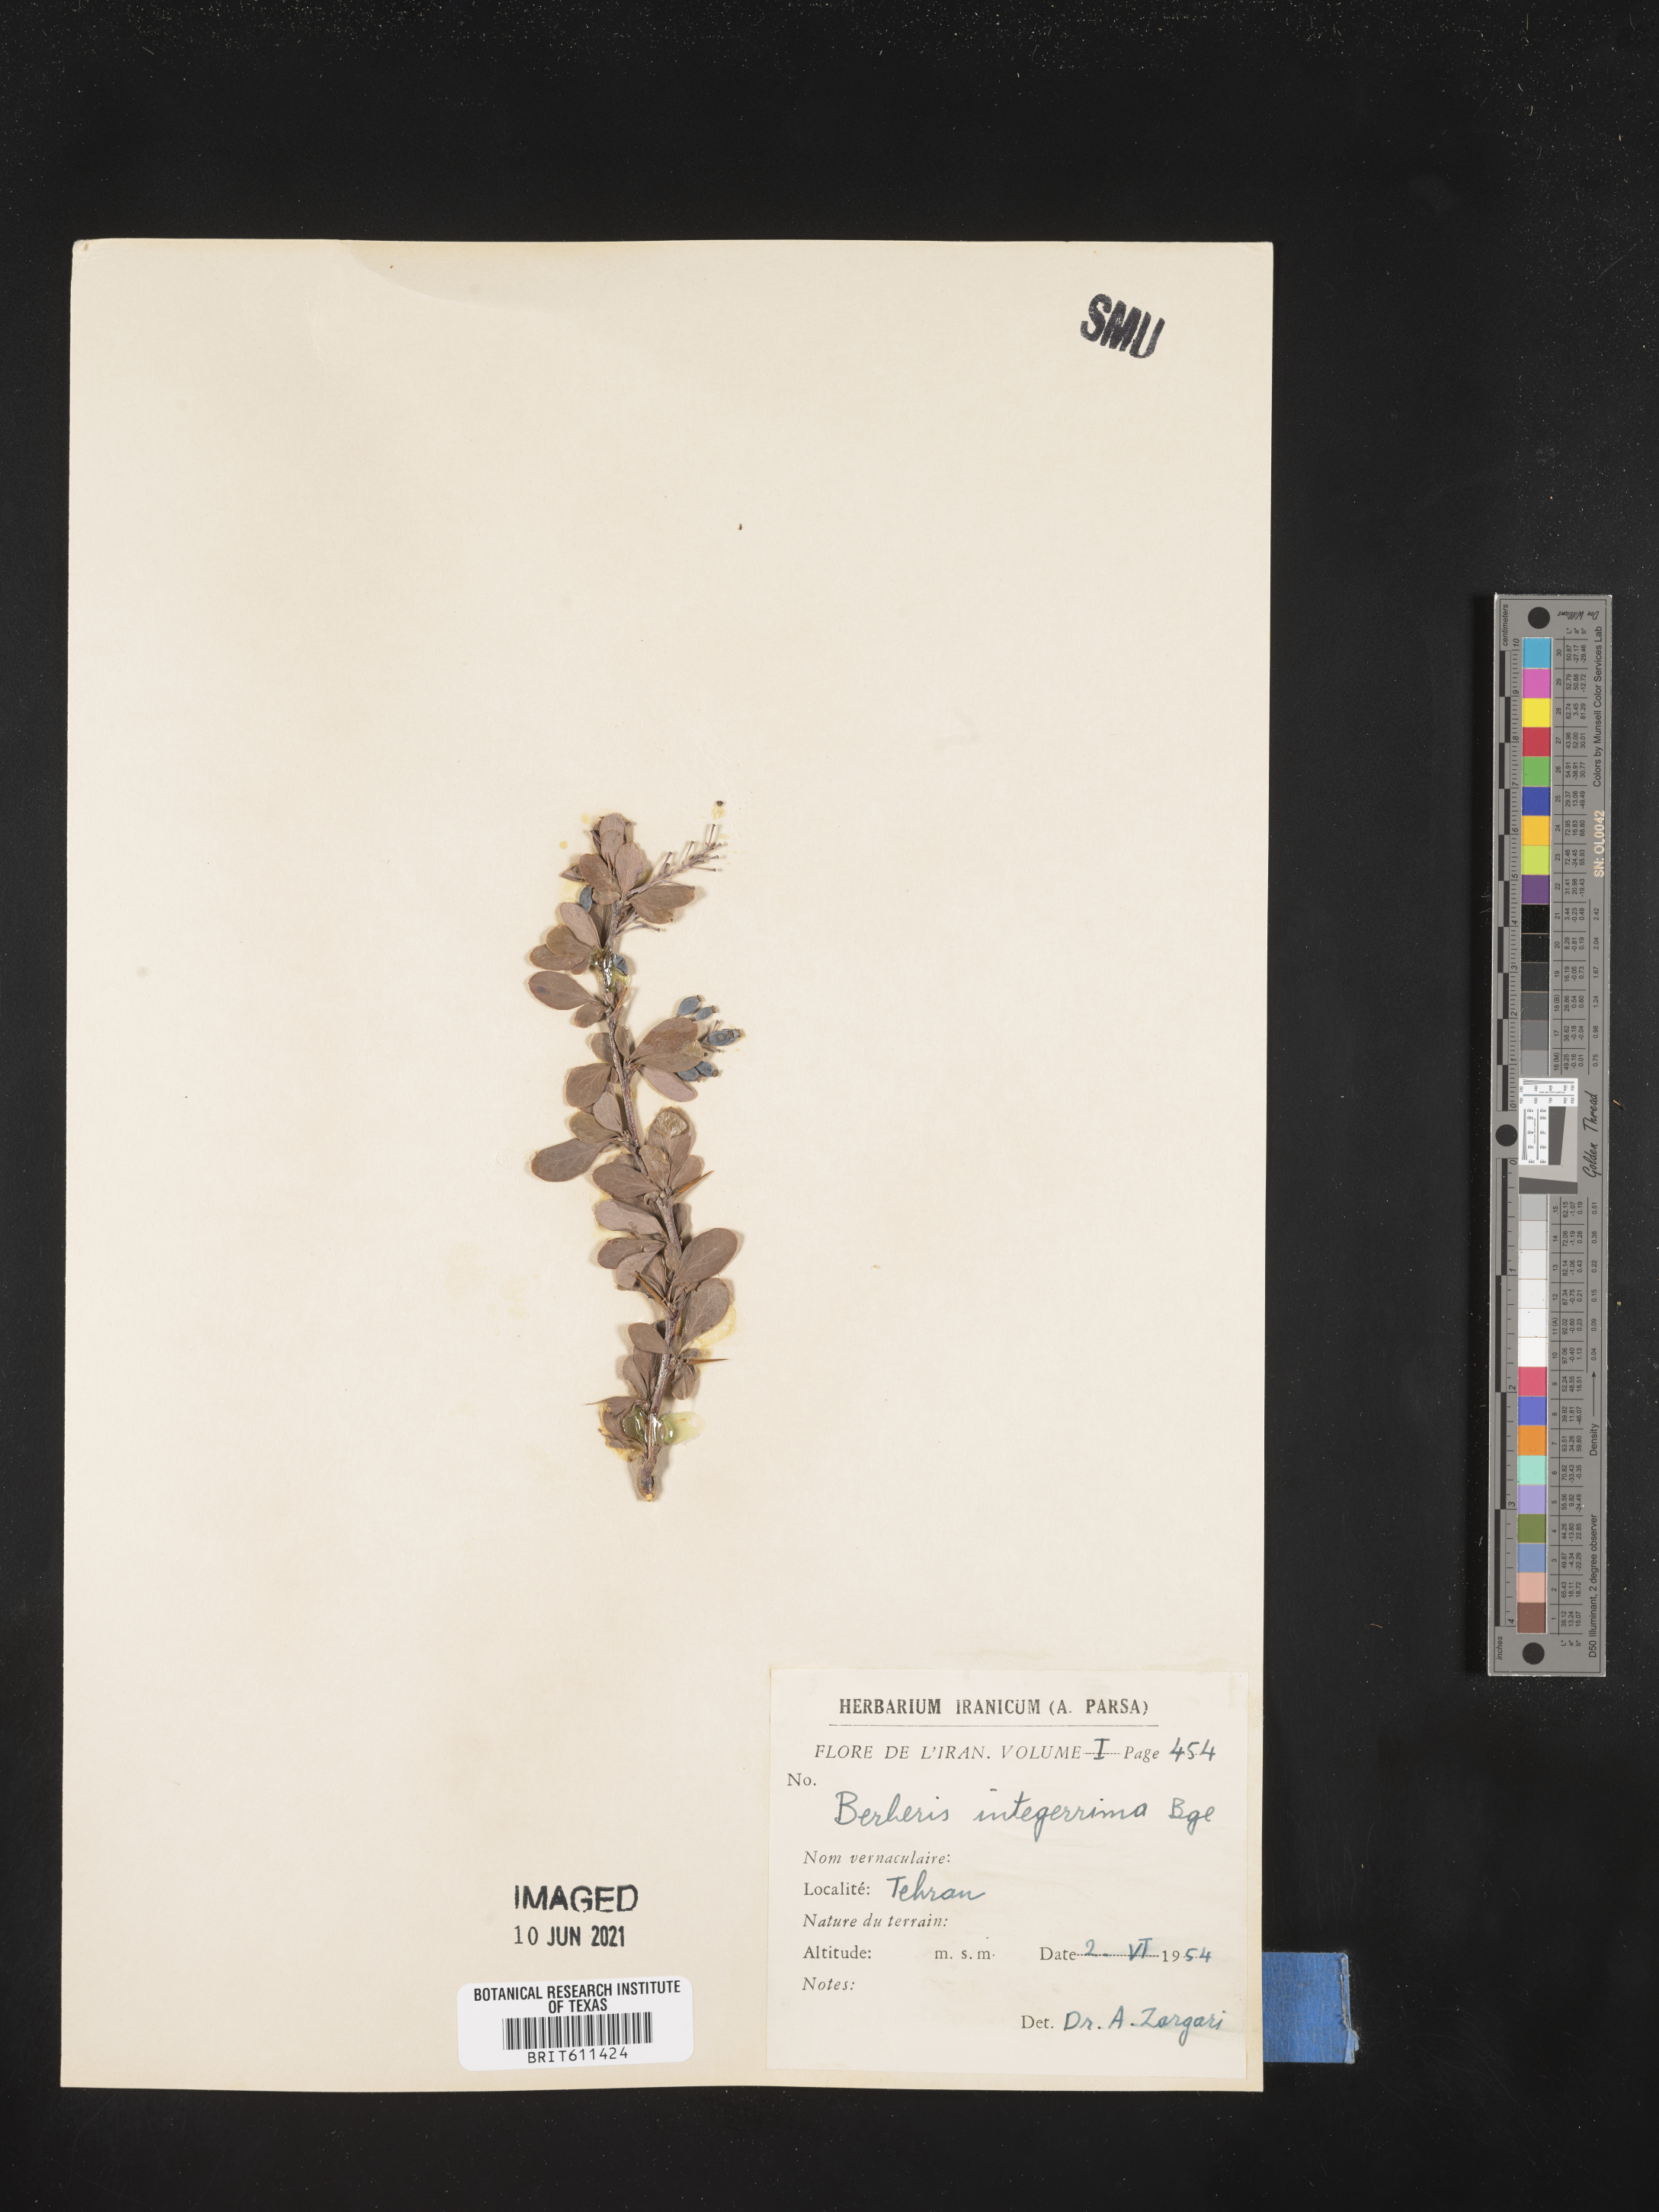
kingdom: Plantae
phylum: Tracheophyta
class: Magnoliopsida
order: Ranunculales
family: Berberidaceae
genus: Berberis
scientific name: Berberis integerrima
